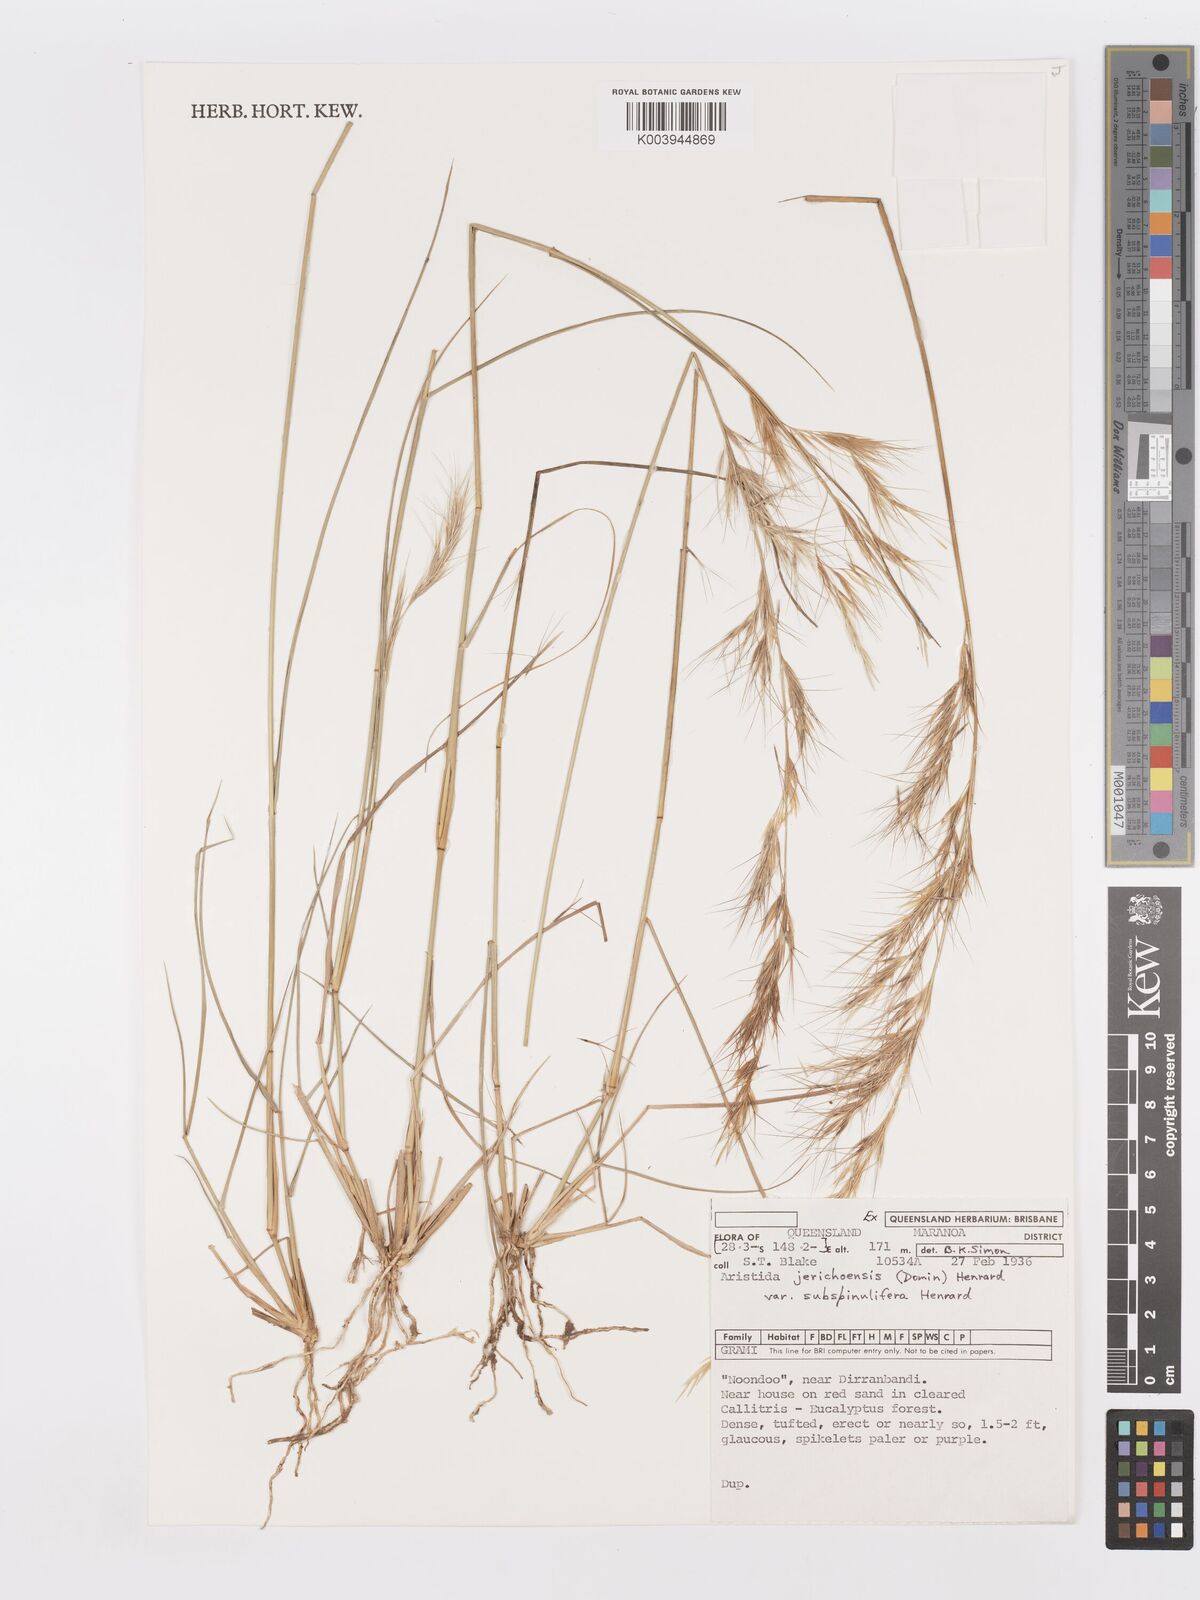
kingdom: Plantae
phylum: Tracheophyta
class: Liliopsida
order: Poales
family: Poaceae
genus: Aristida
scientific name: Aristida jerichoensis
